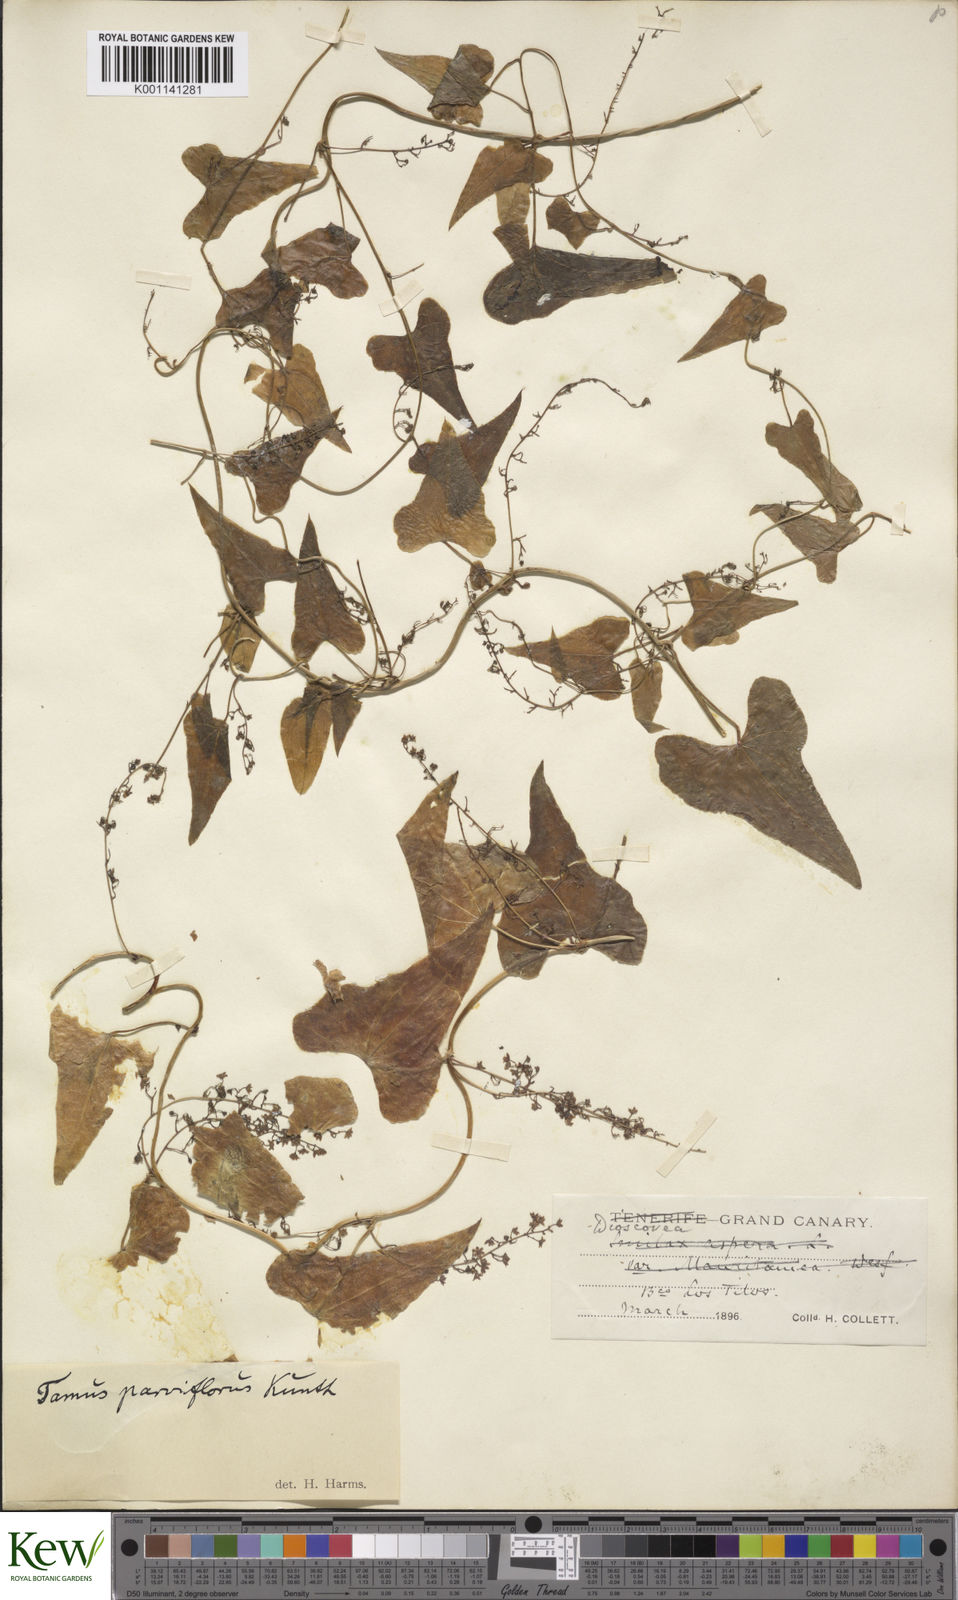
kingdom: Plantae
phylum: Tracheophyta
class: Liliopsida
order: Dioscoreales
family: Dioscoreaceae
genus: Dioscorea
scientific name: Dioscorea
